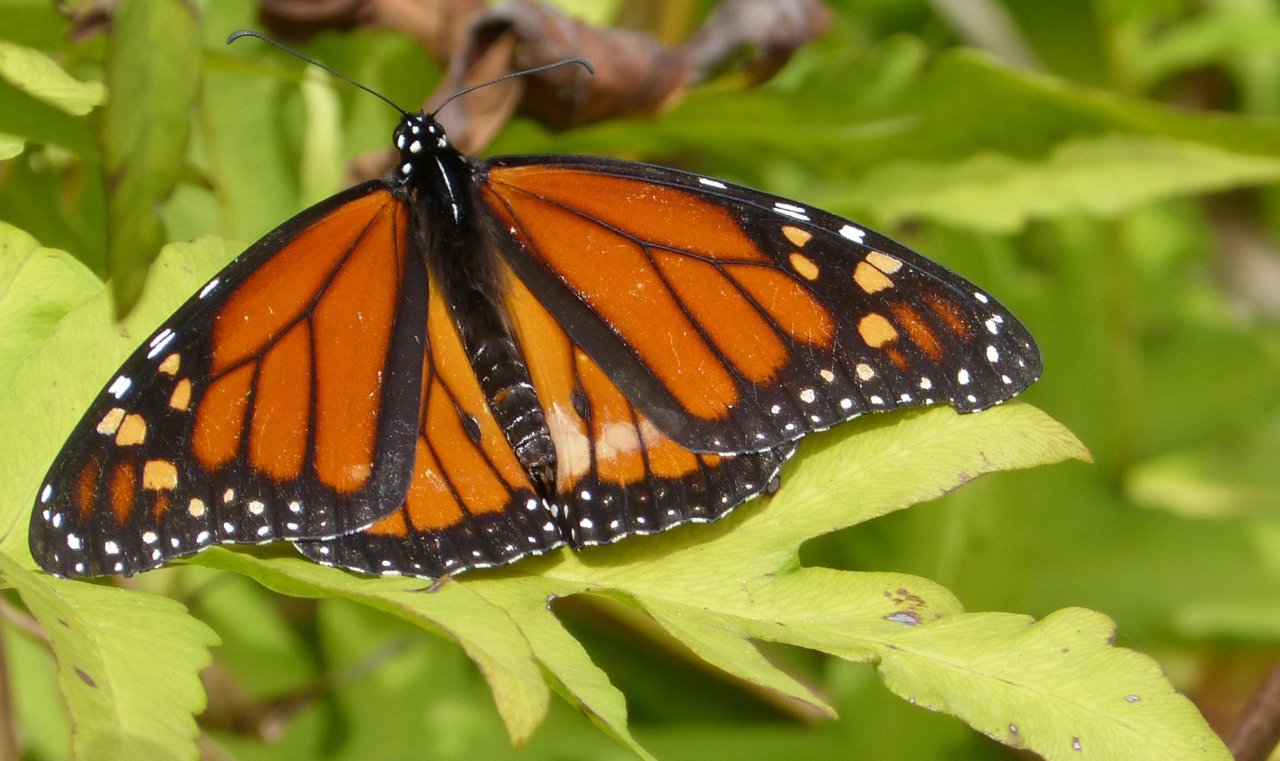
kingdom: Animalia
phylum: Arthropoda
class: Insecta
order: Lepidoptera
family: Nymphalidae
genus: Danaus
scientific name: Danaus plexippus
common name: Monarch
